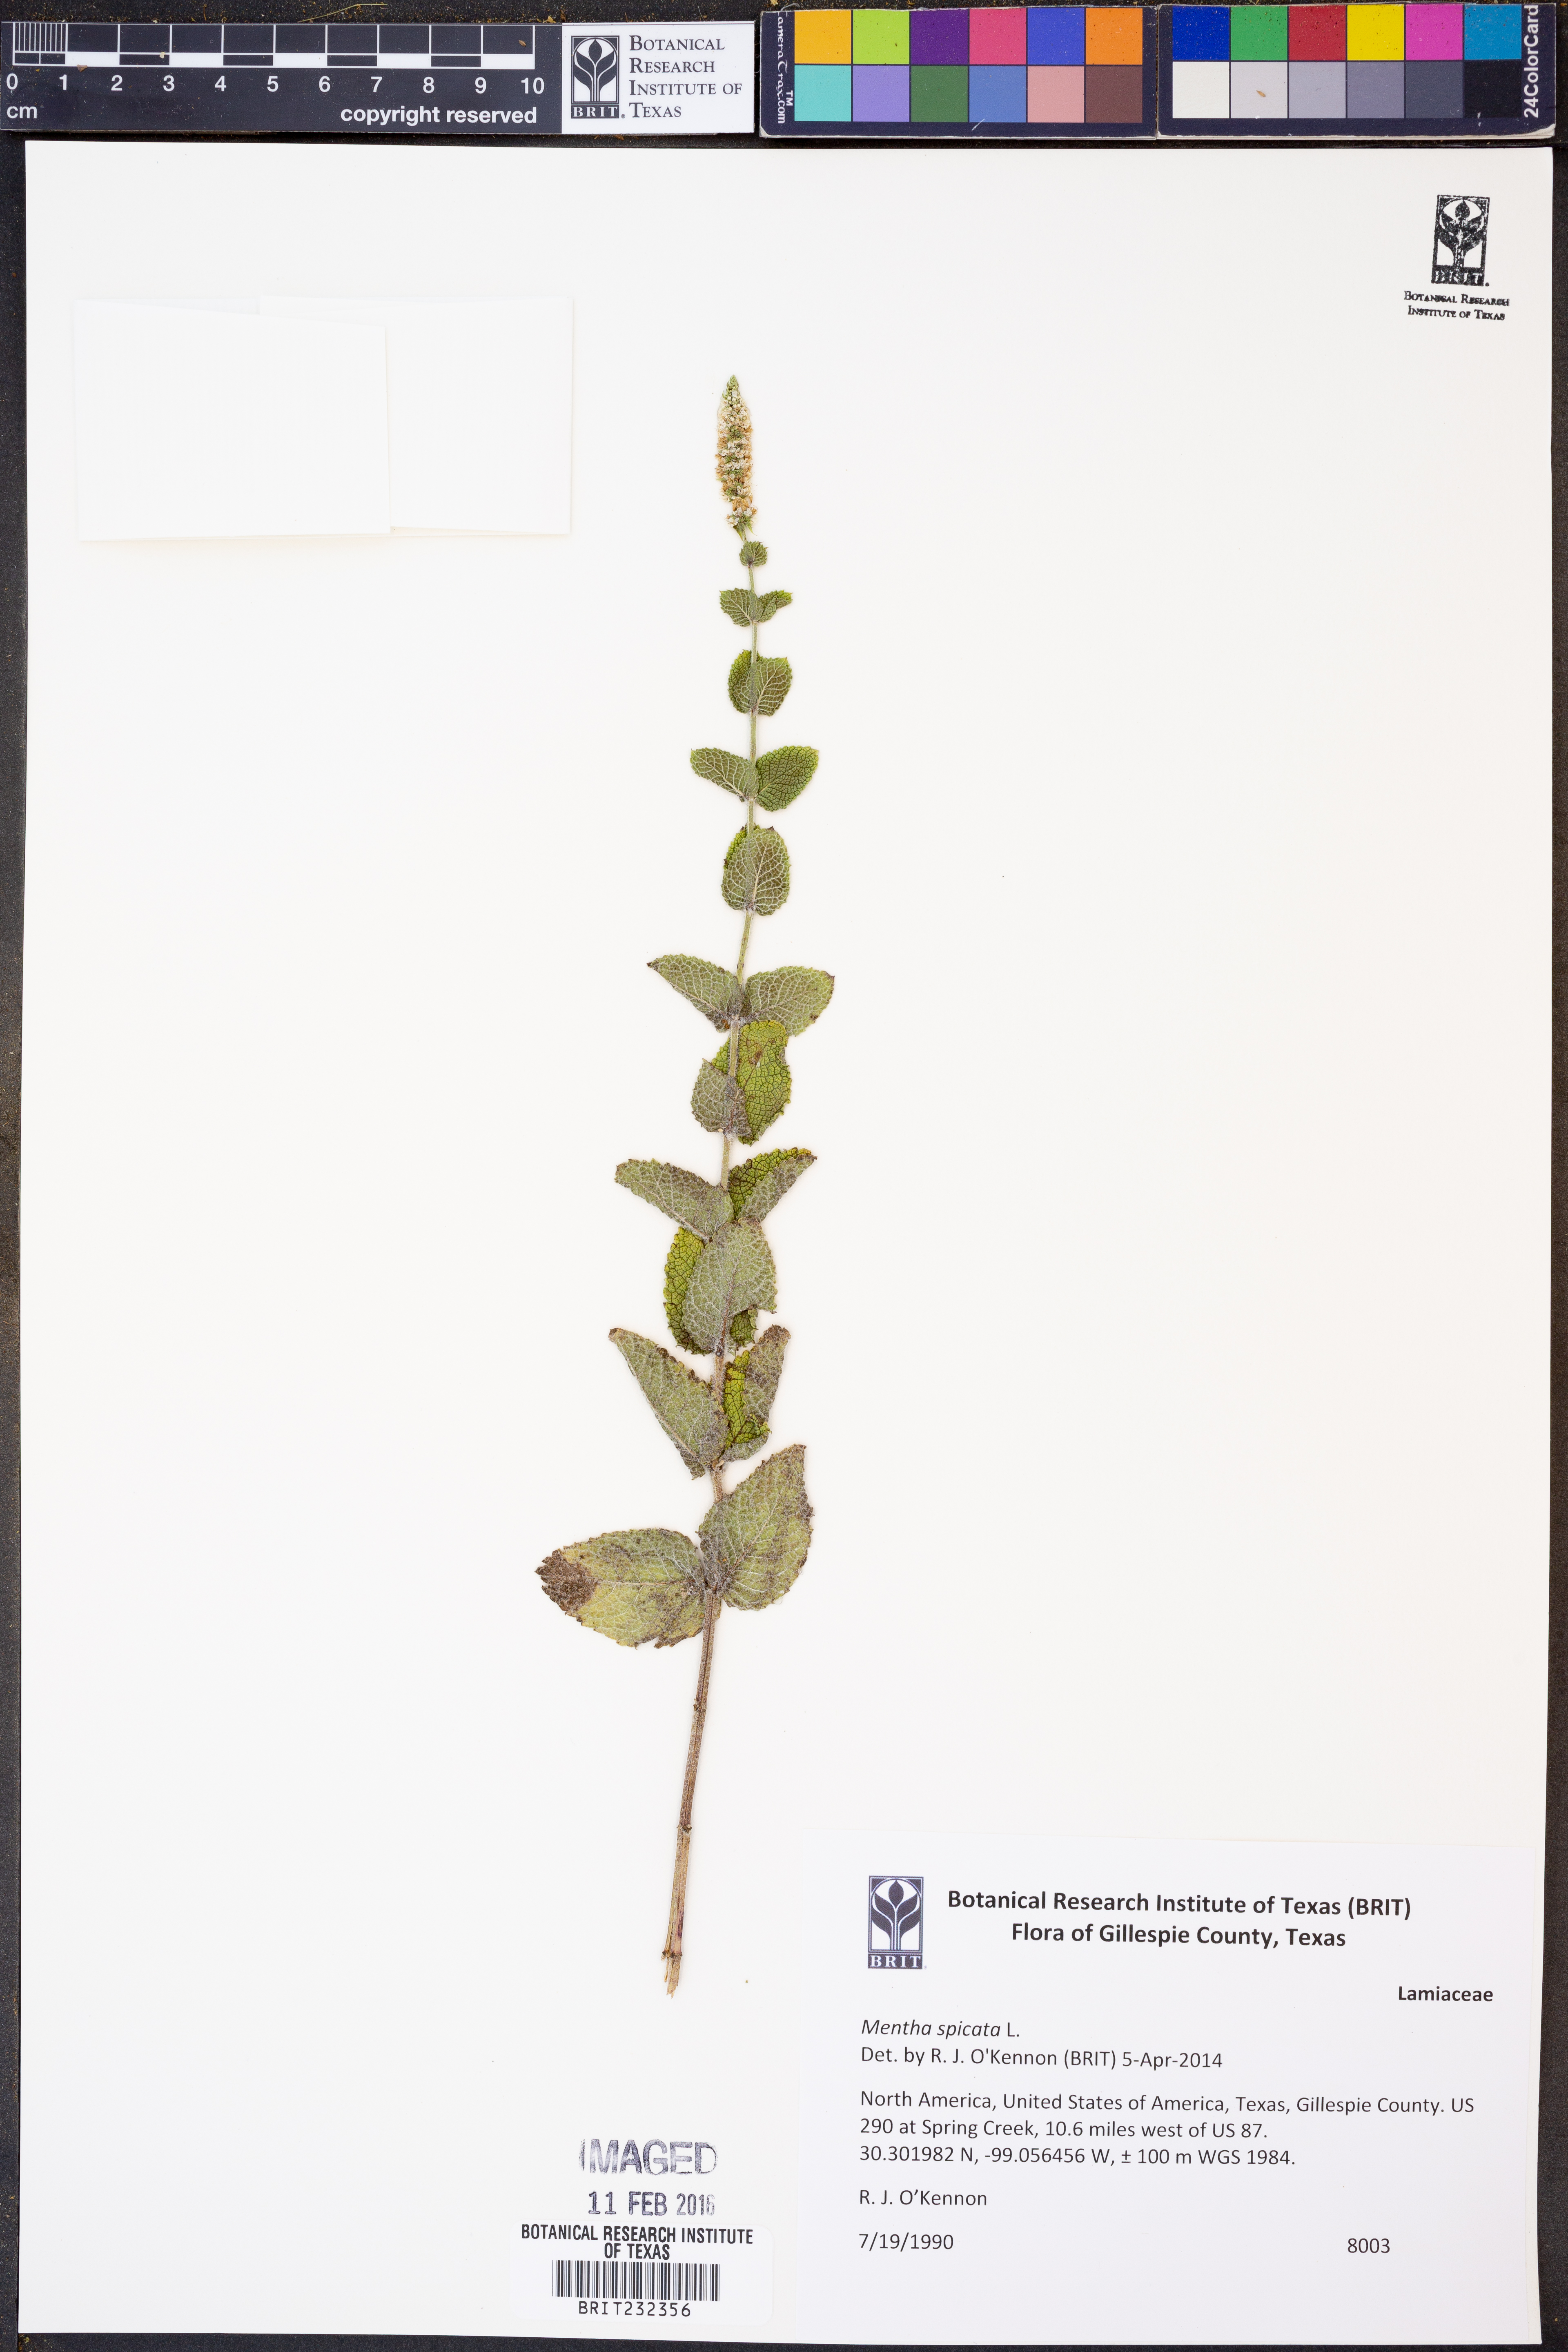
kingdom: Plantae
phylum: Tracheophyta
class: Magnoliopsida
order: Lamiales
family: Lamiaceae
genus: Mentha
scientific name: Mentha spicata
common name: Spearmint
